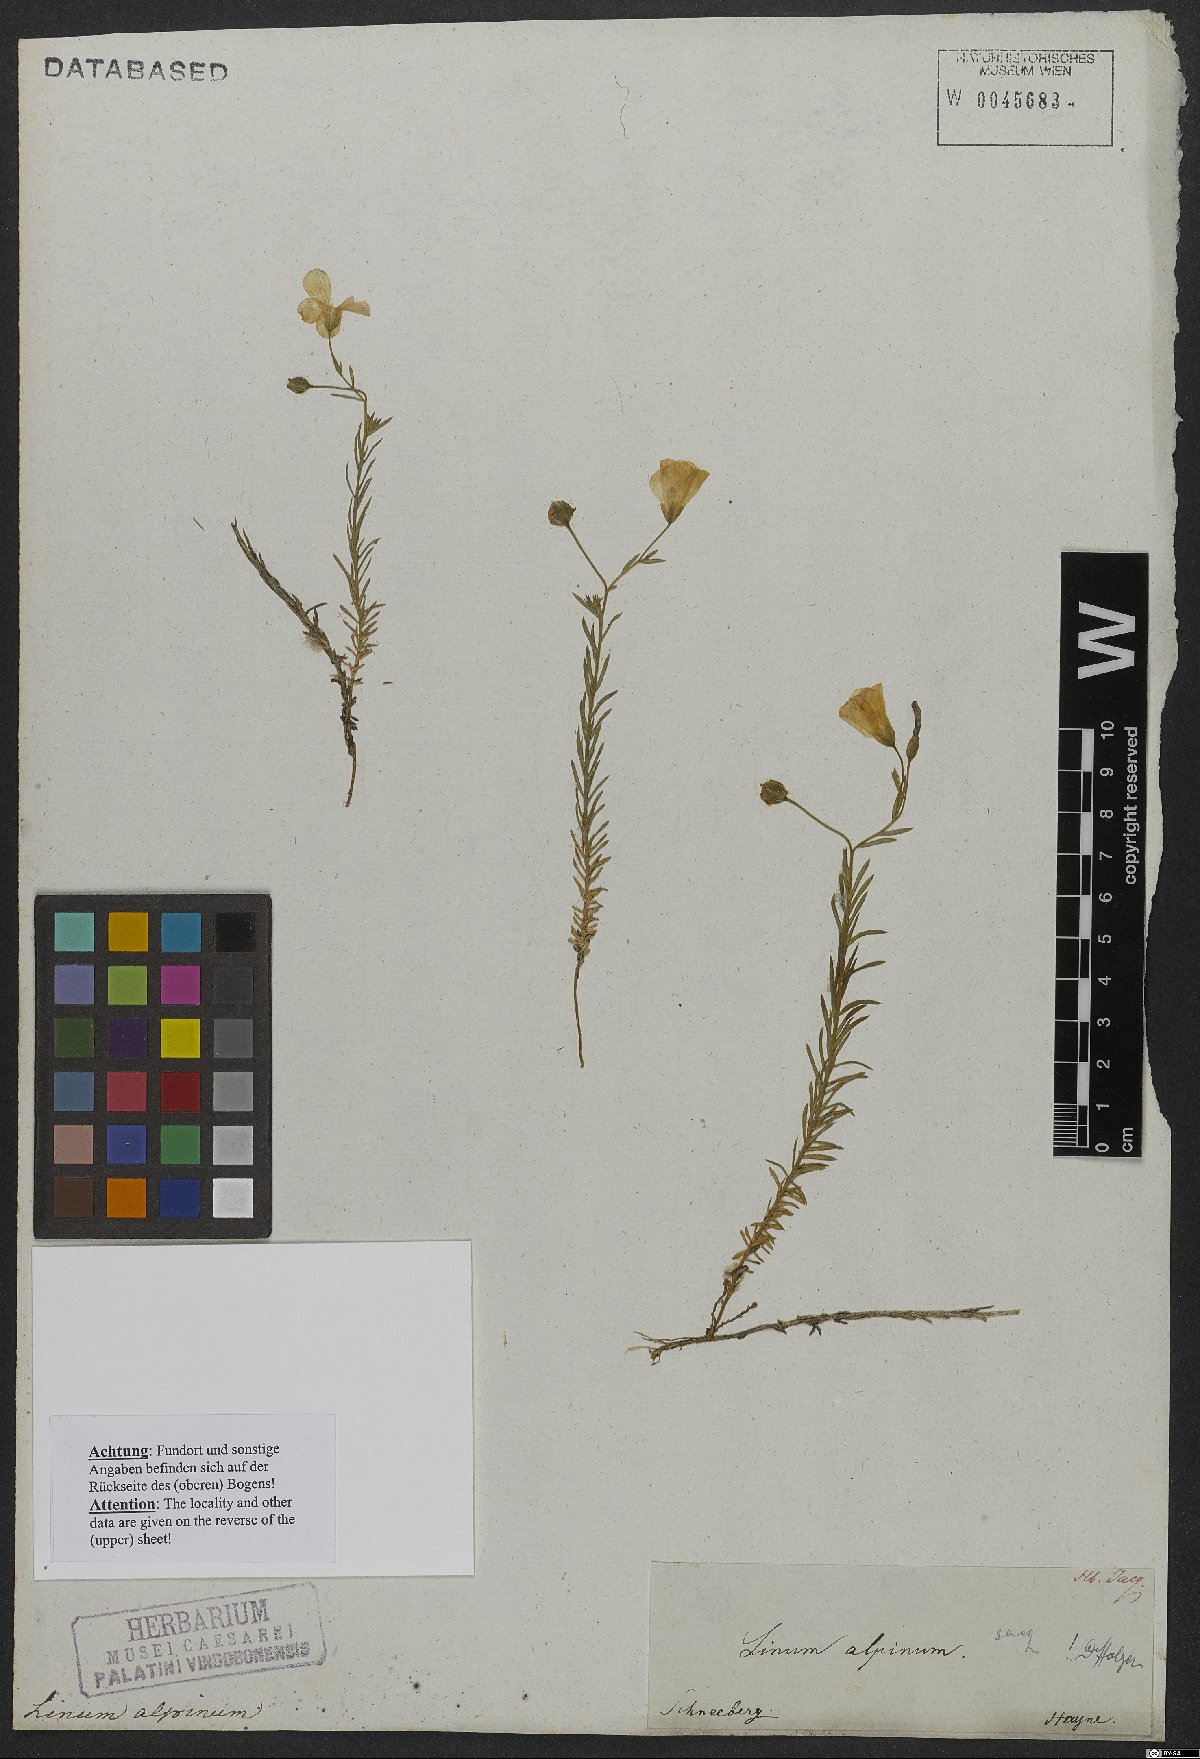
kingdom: Plantae
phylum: Tracheophyta
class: Magnoliopsida
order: Malpighiales
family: Linaceae
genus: Linum
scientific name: Linum alpinum
